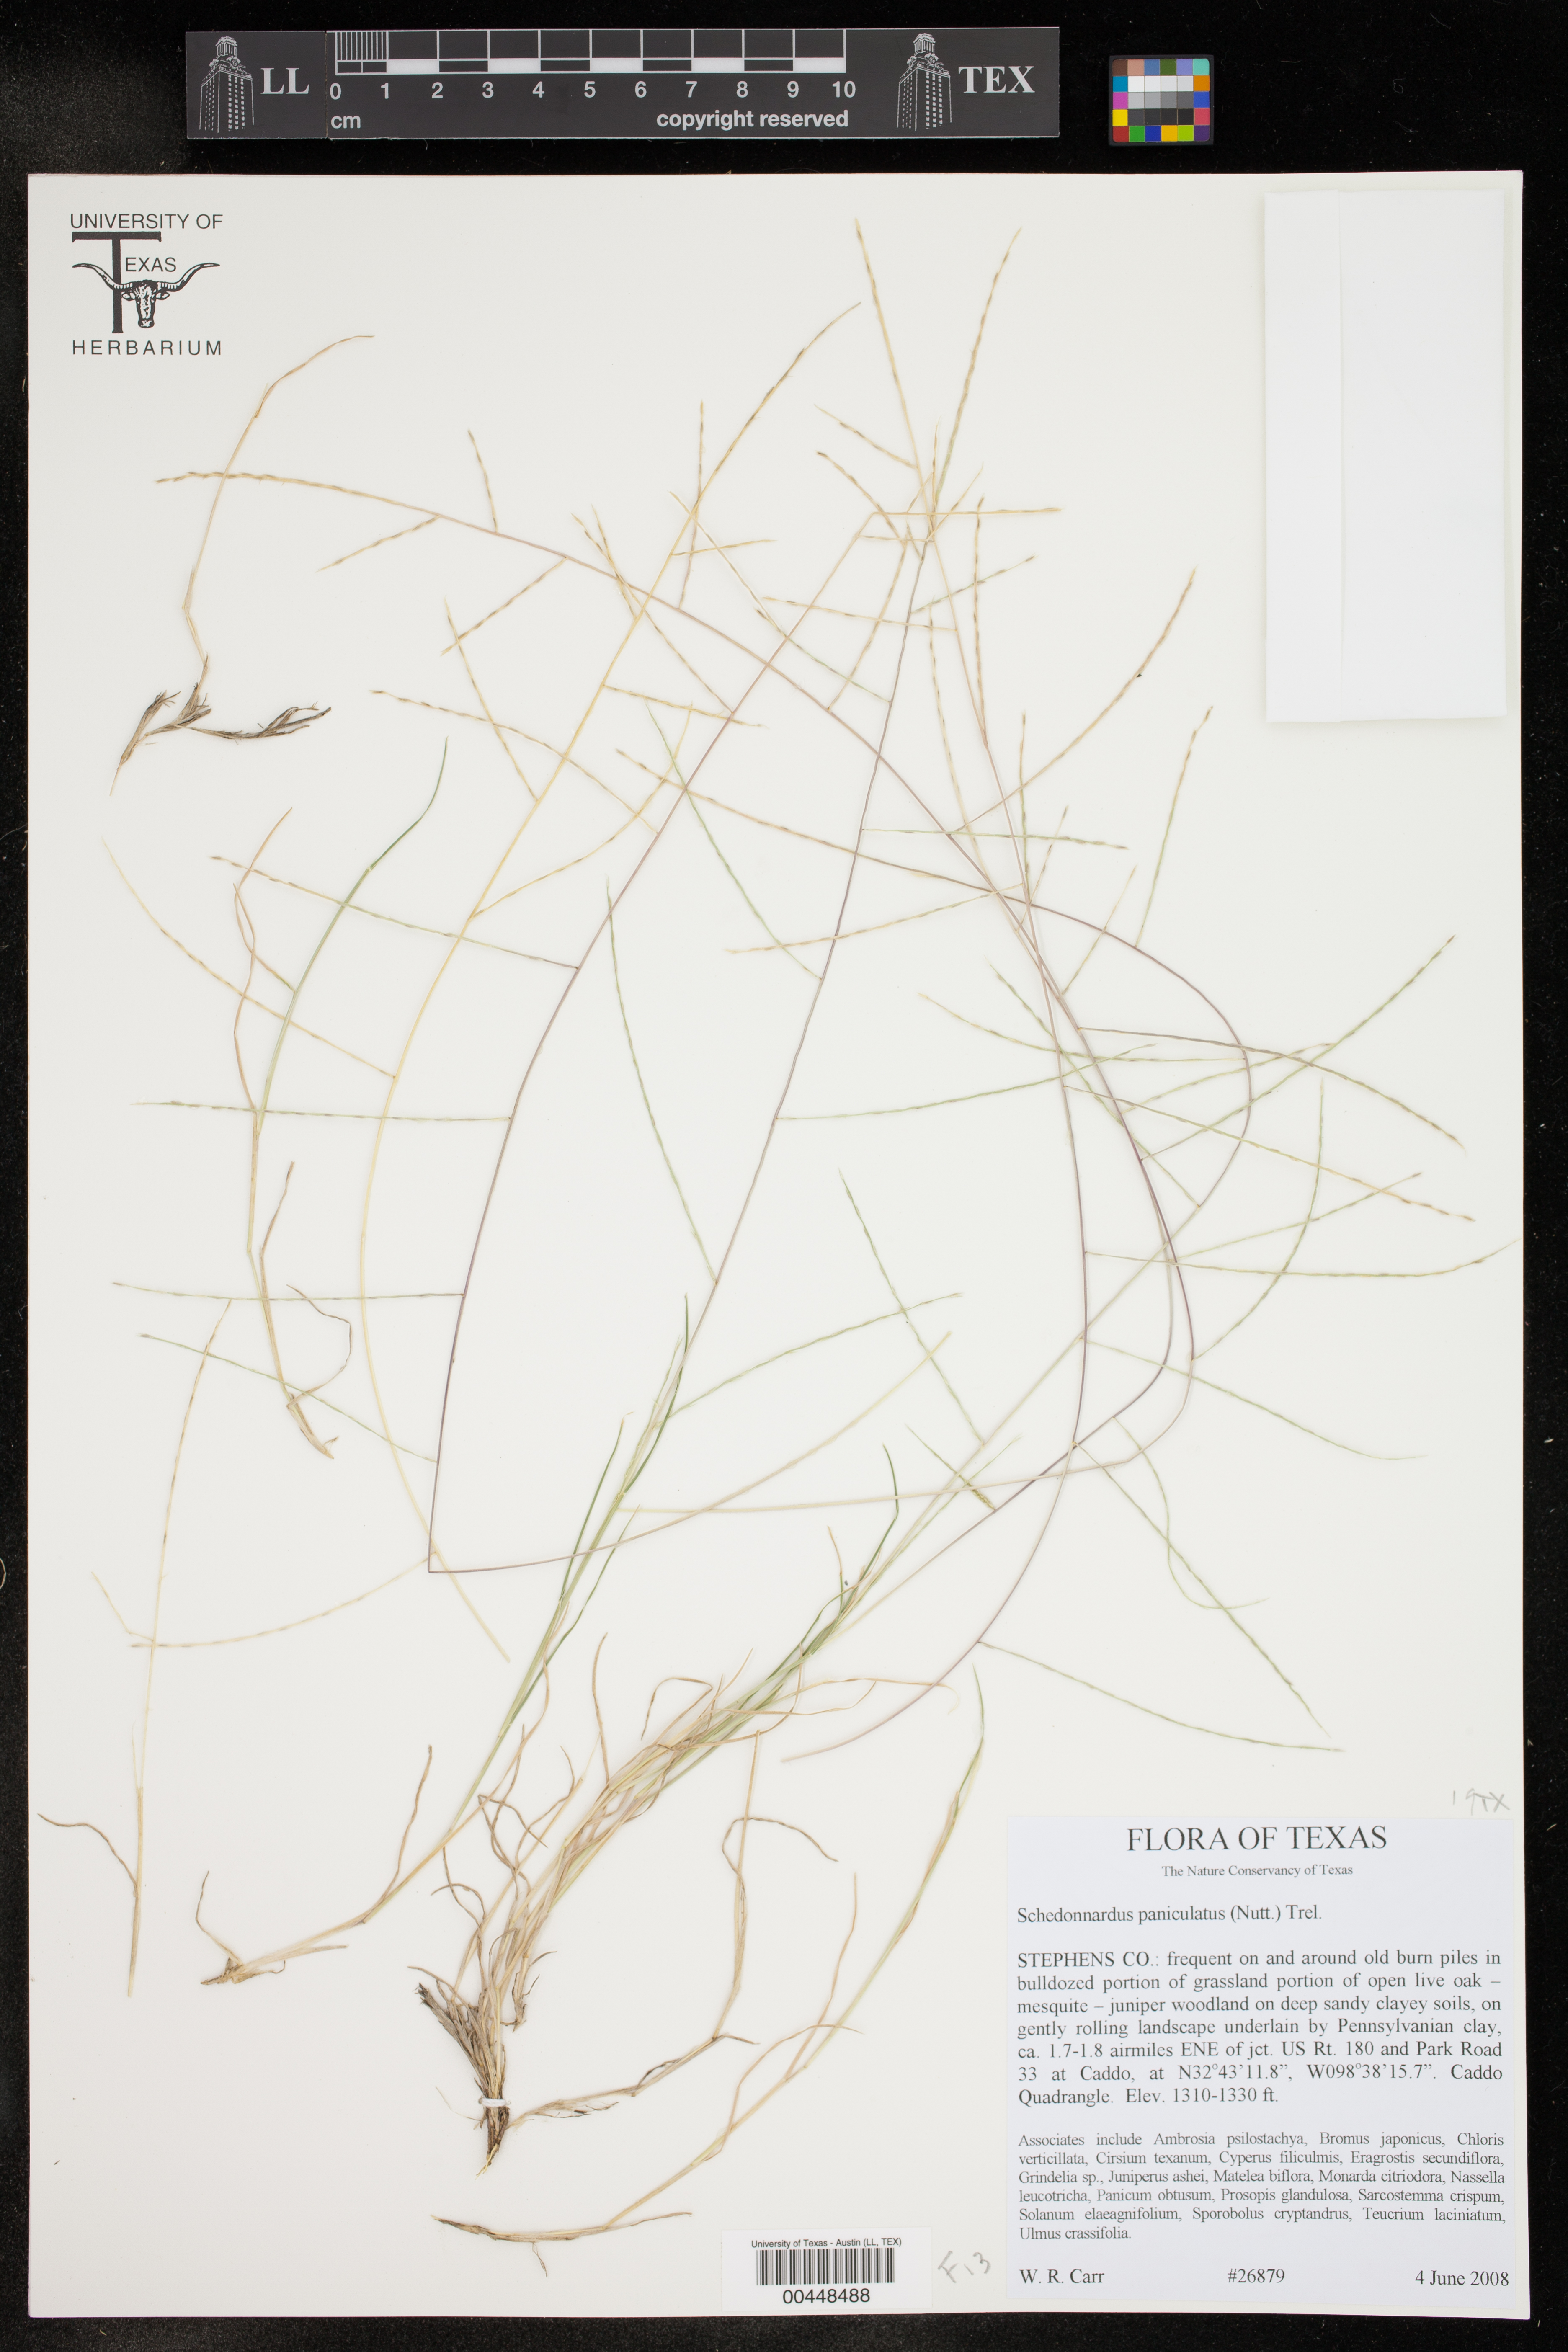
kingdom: Plantae
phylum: Tracheophyta
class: Liliopsida
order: Poales
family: Poaceae
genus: Muhlenbergia
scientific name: Muhlenbergia paniculata
